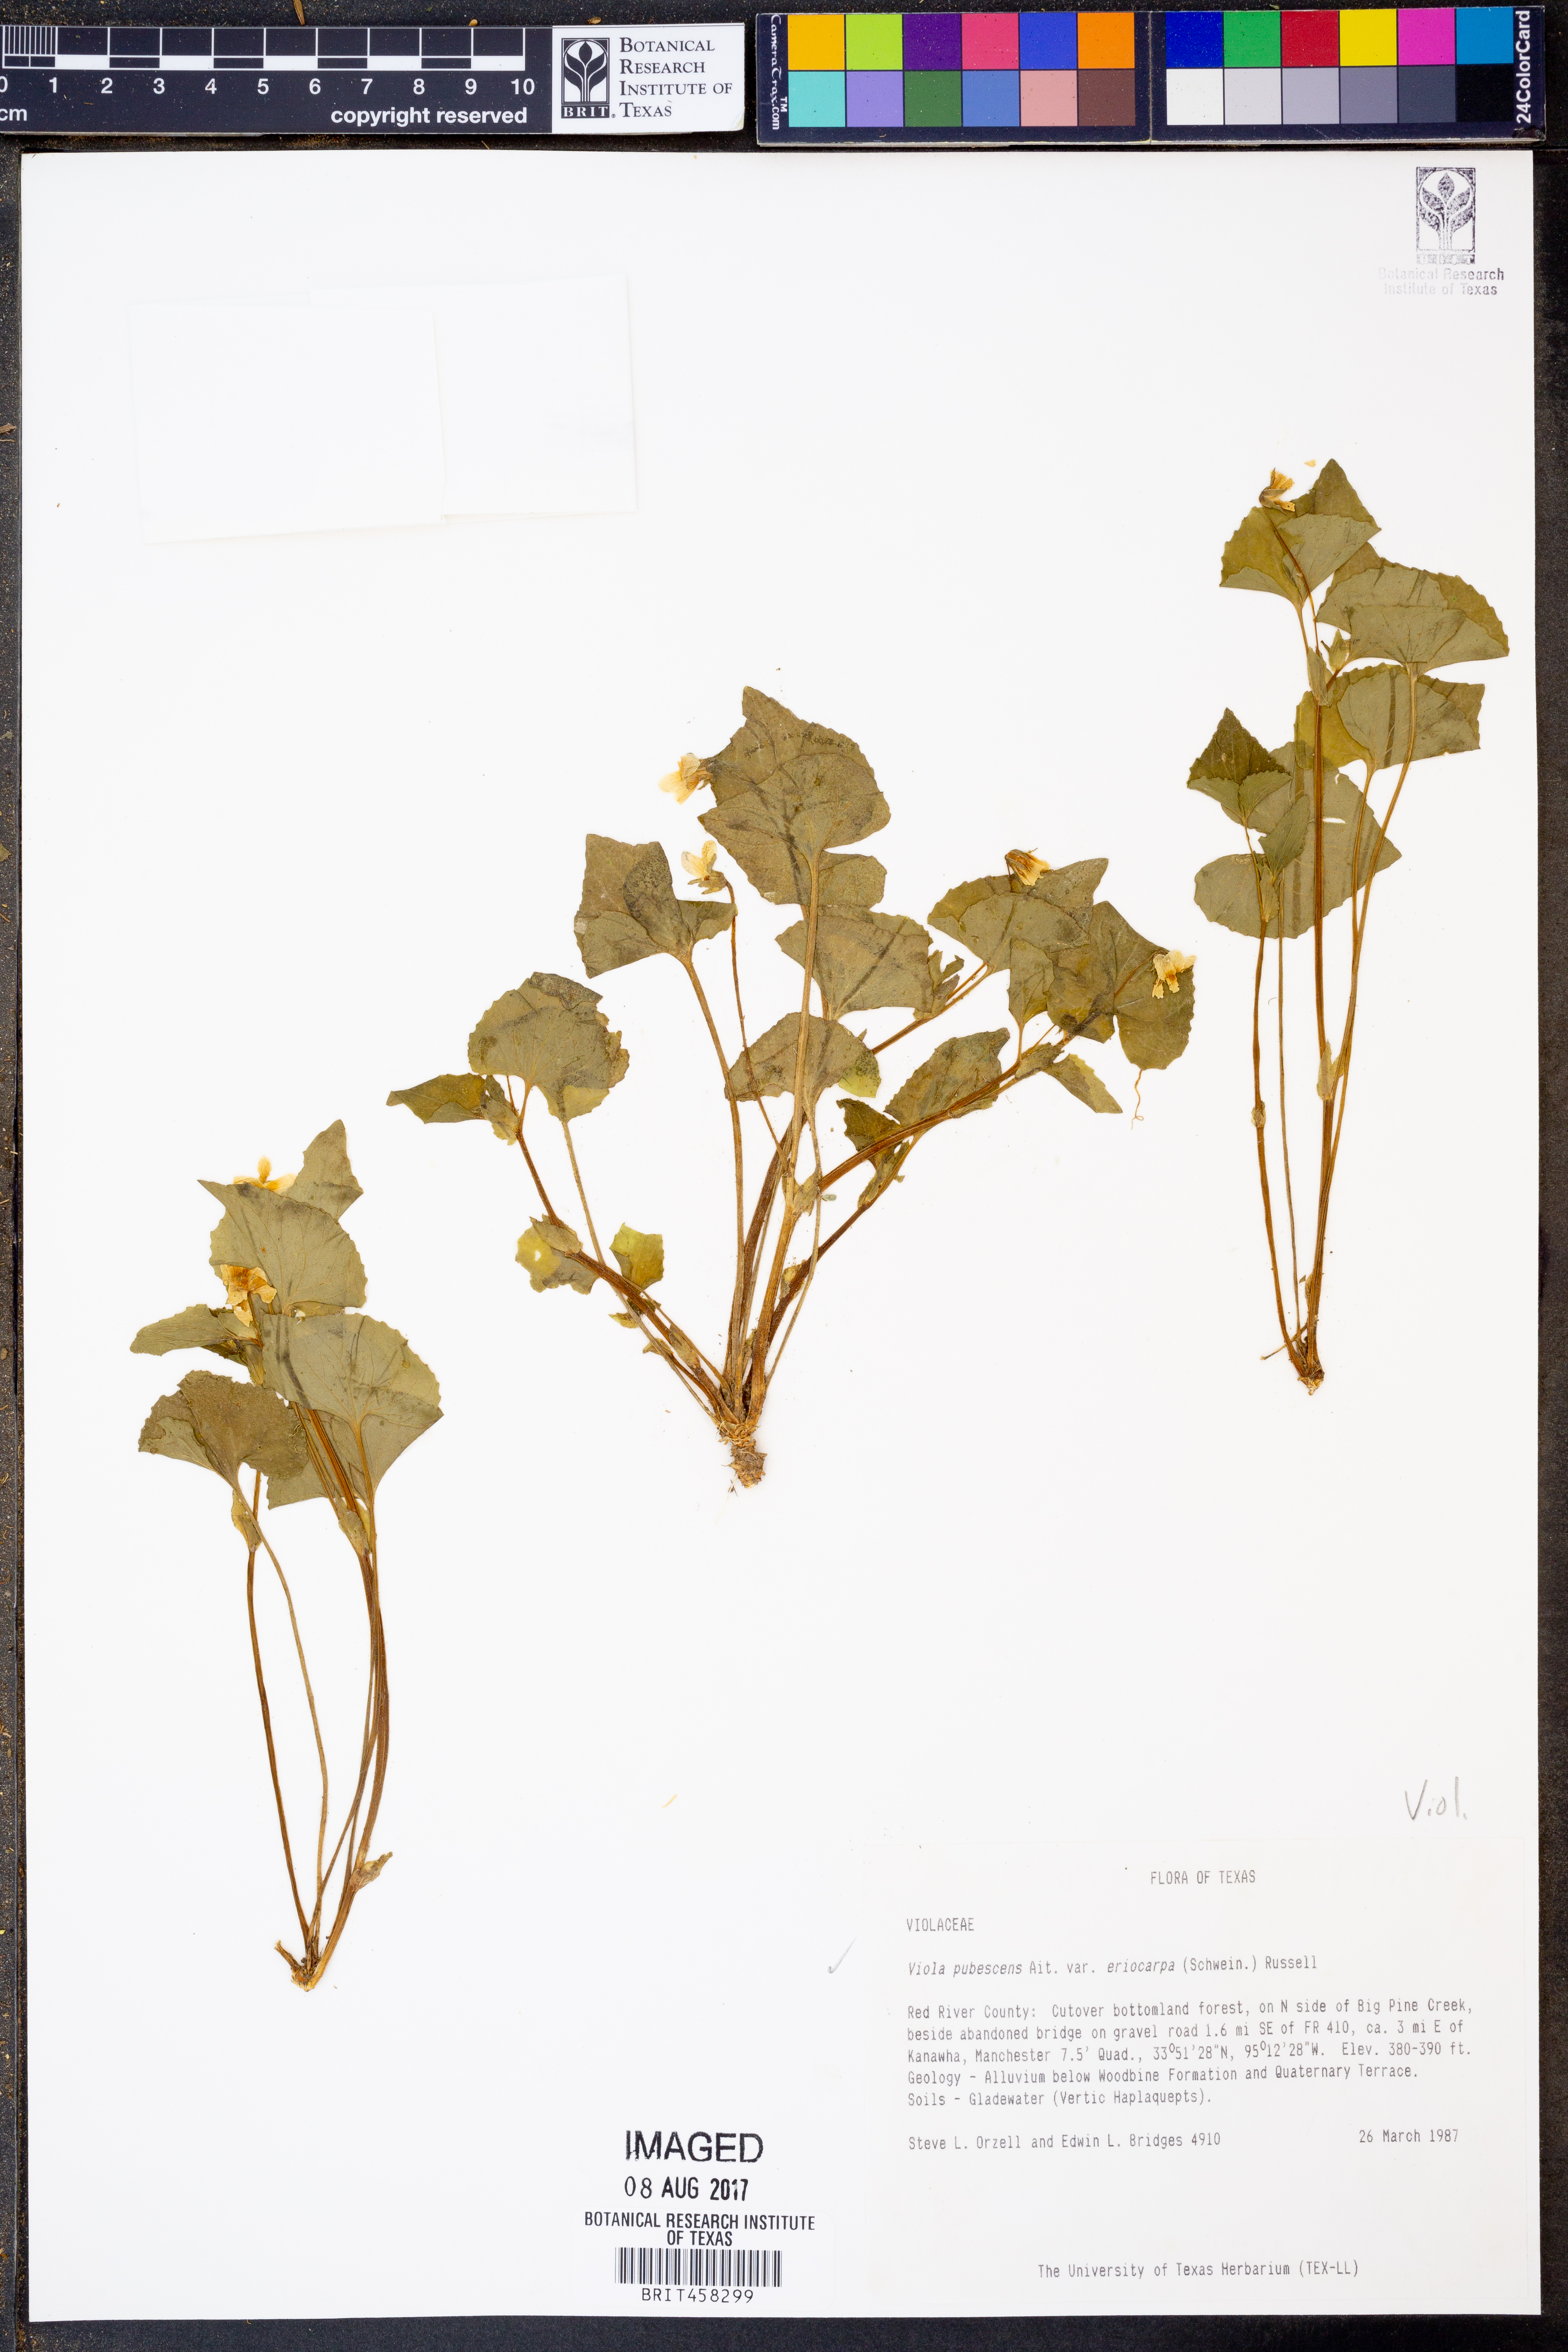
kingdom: Plantae
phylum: Tracheophyta
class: Magnoliopsida
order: Malpighiales
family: Violaceae
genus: Viola
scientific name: Viola eriocarpa
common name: Smooth yellow violet
